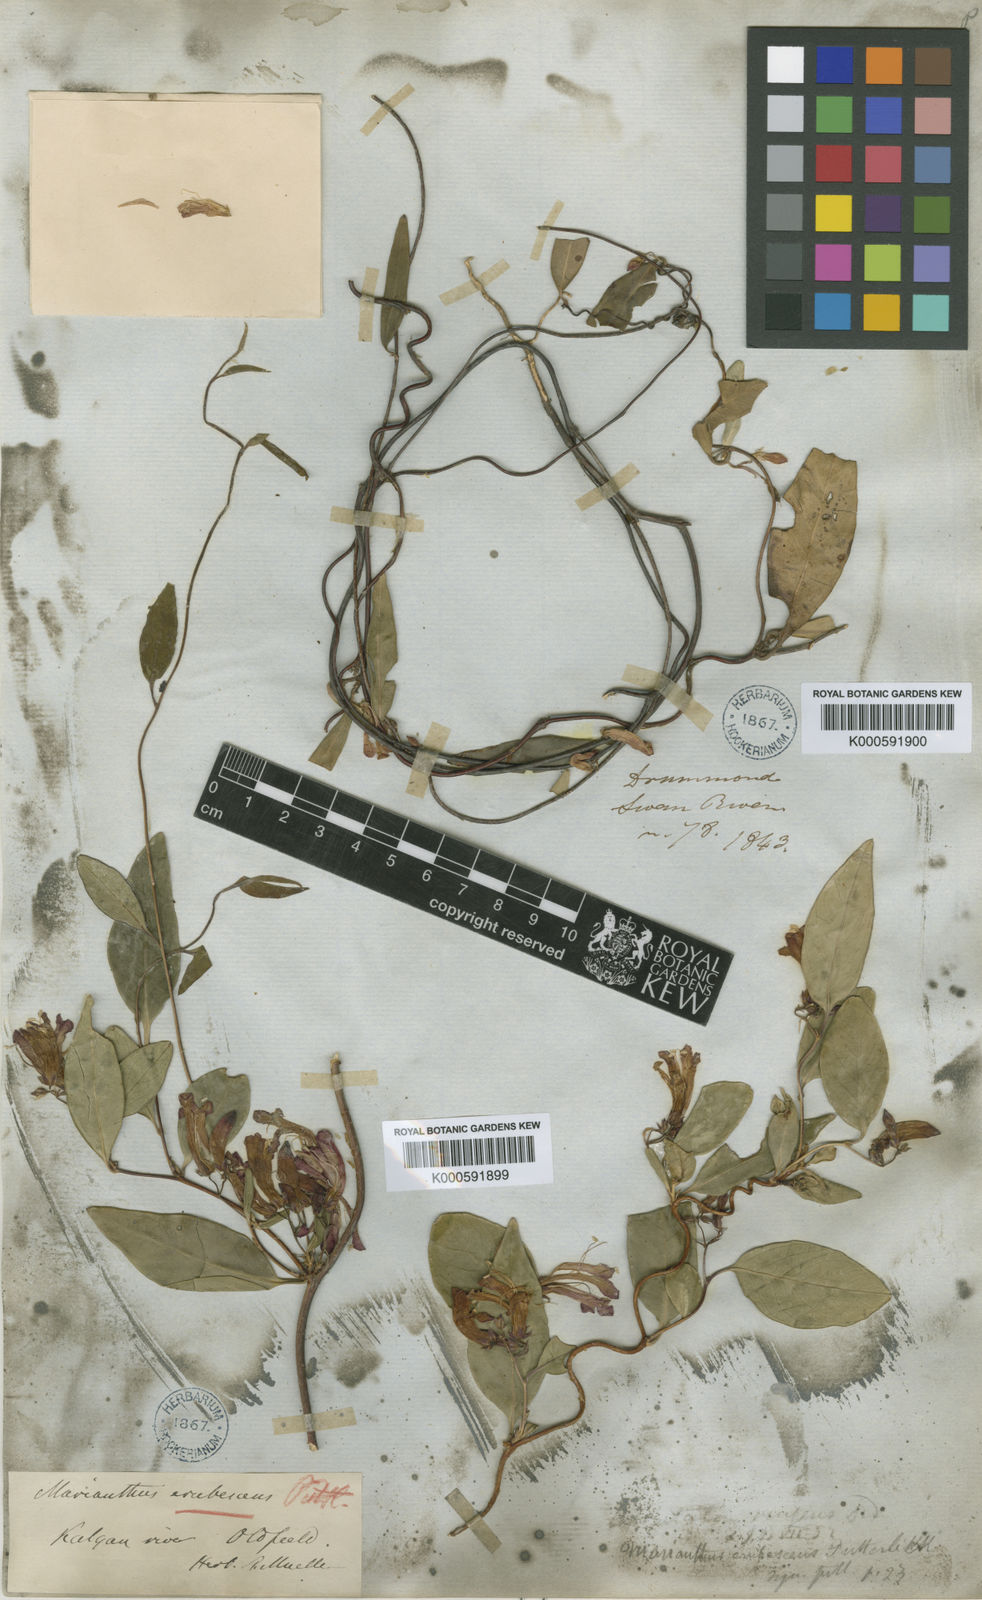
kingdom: Plantae
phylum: Tracheophyta
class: Magnoliopsida
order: Apiales
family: Pittosporaceae
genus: Marianthus
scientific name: Marianthus erubescens
